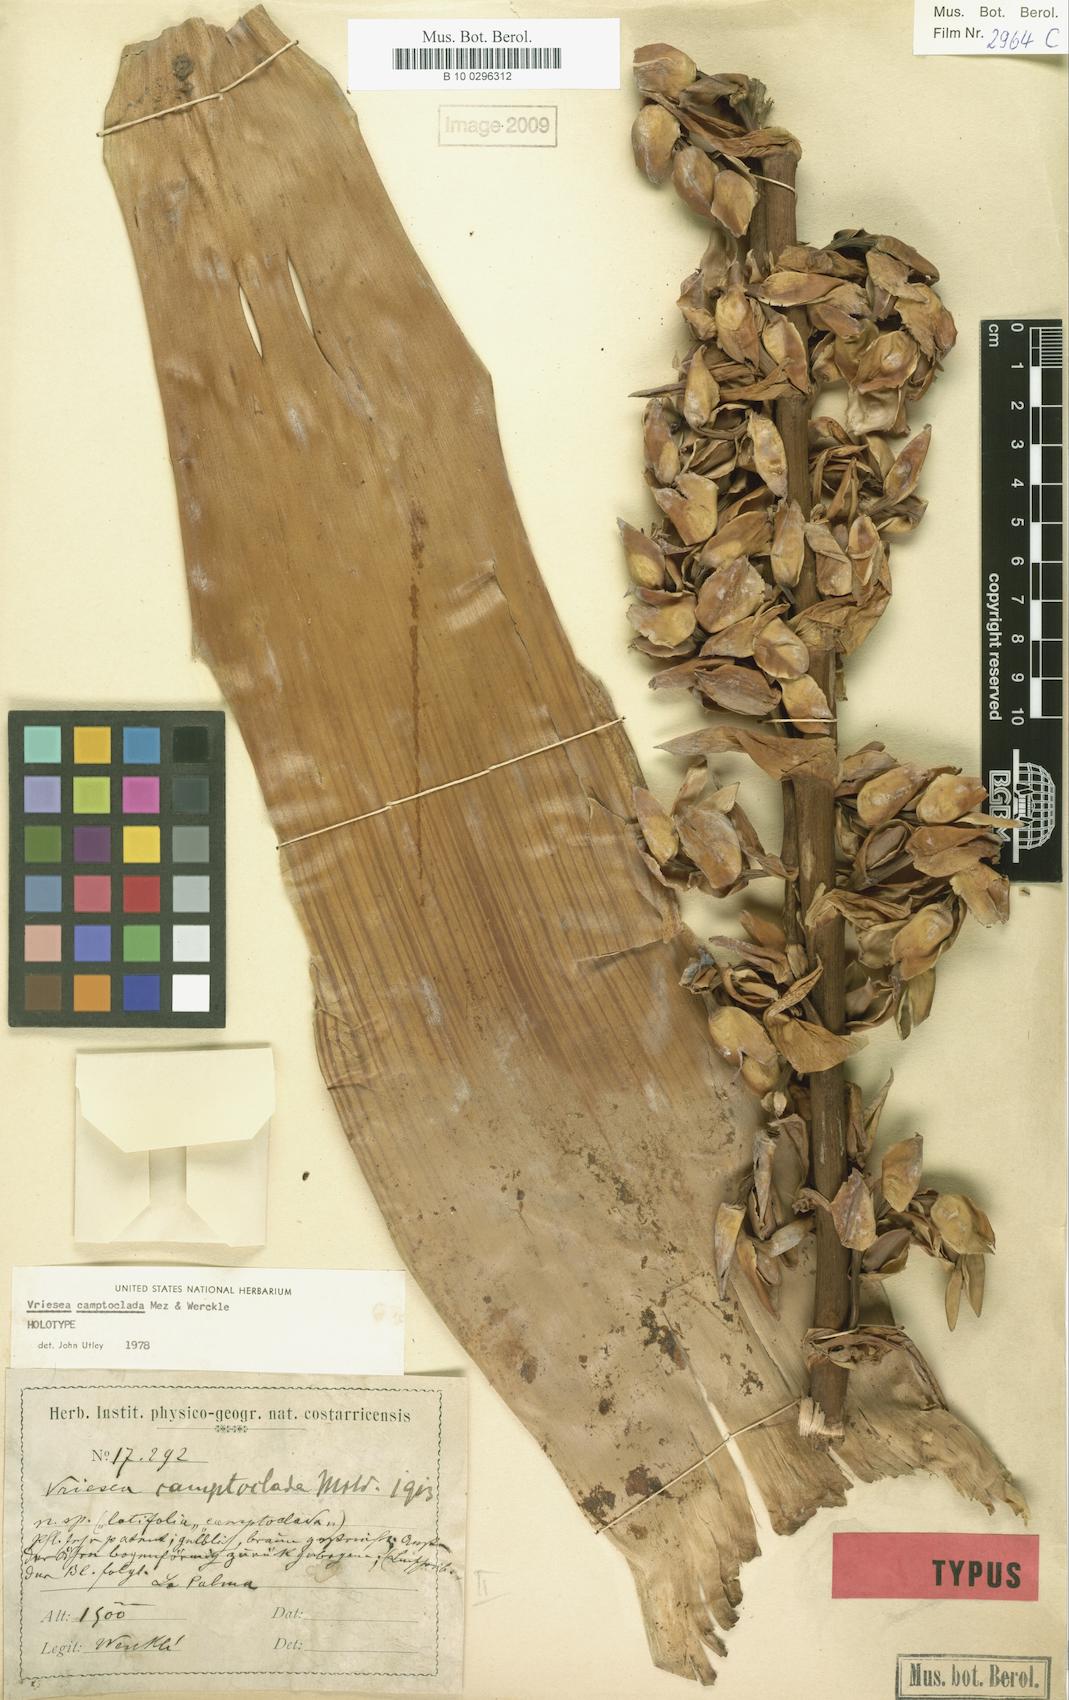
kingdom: Plantae
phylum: Tracheophyta
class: Liliopsida
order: Poales
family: Bromeliaceae
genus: Werauhia
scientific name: Werauhia camptoclada
